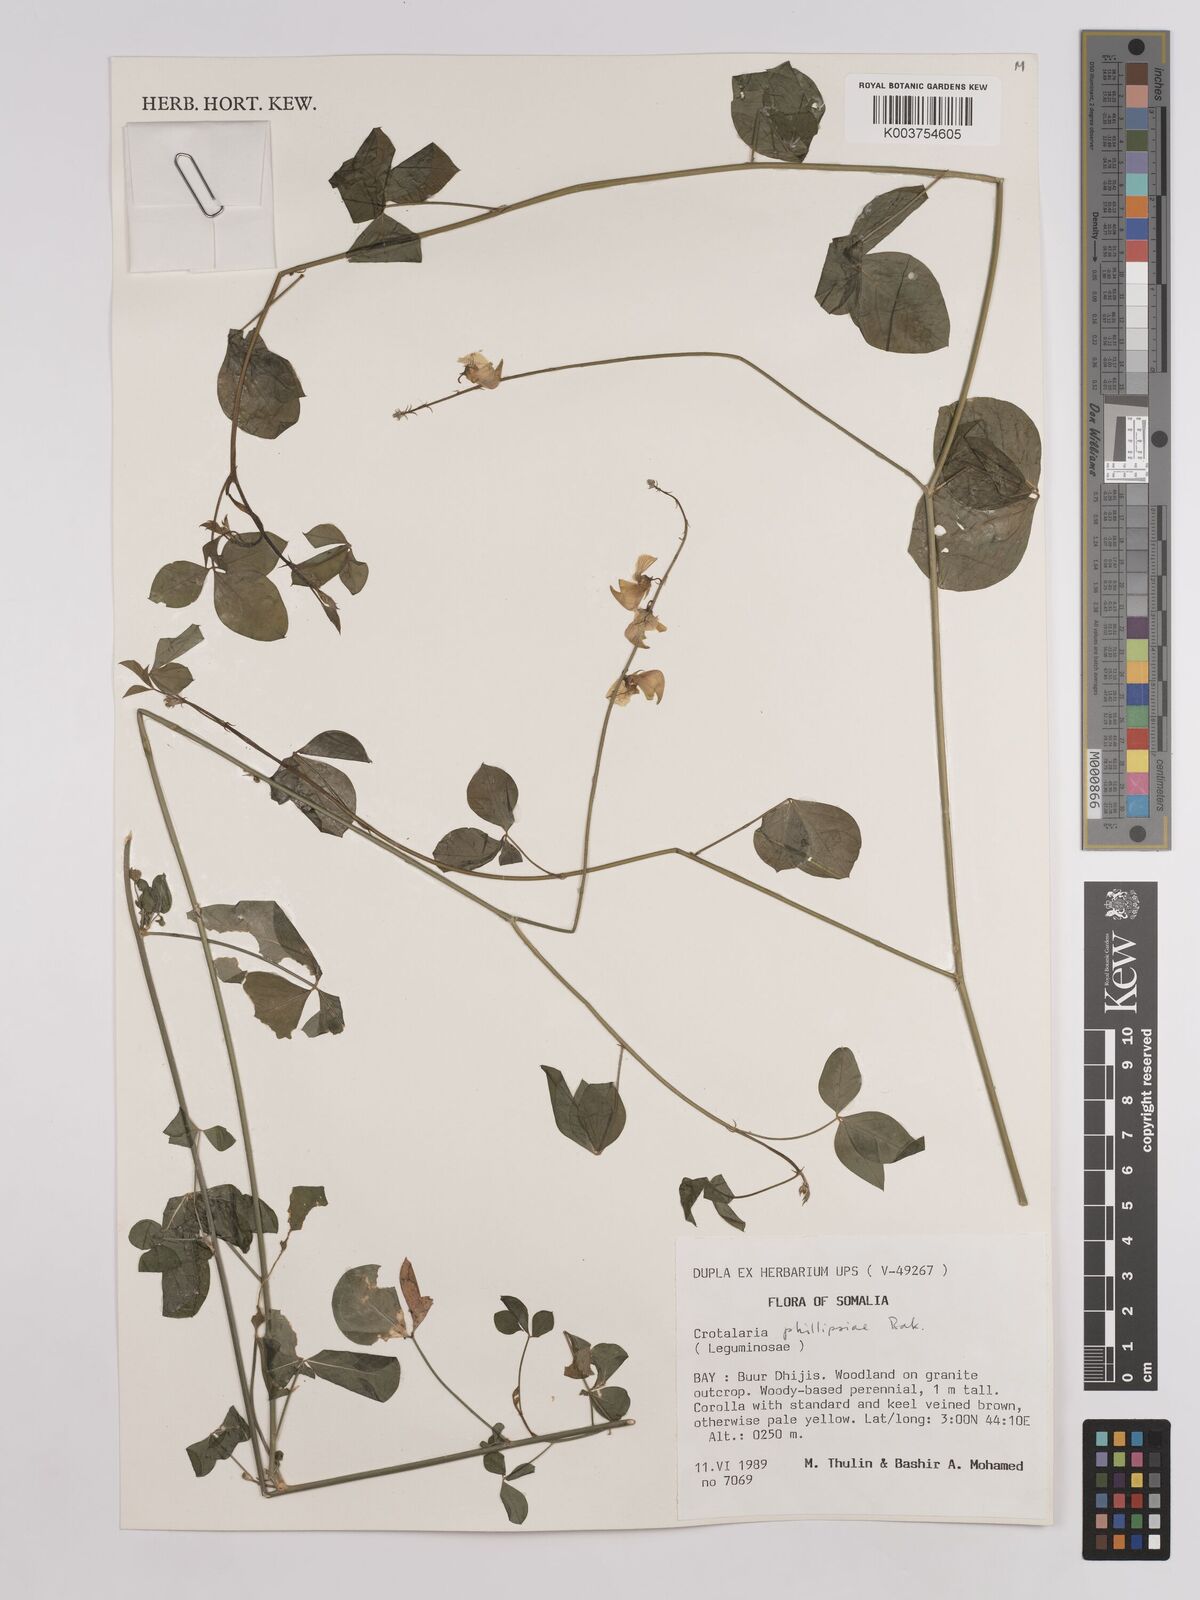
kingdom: Plantae
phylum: Tracheophyta
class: Magnoliopsida
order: Fabales
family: Fabaceae
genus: Crotalaria
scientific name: Crotalaria phillipsiae
